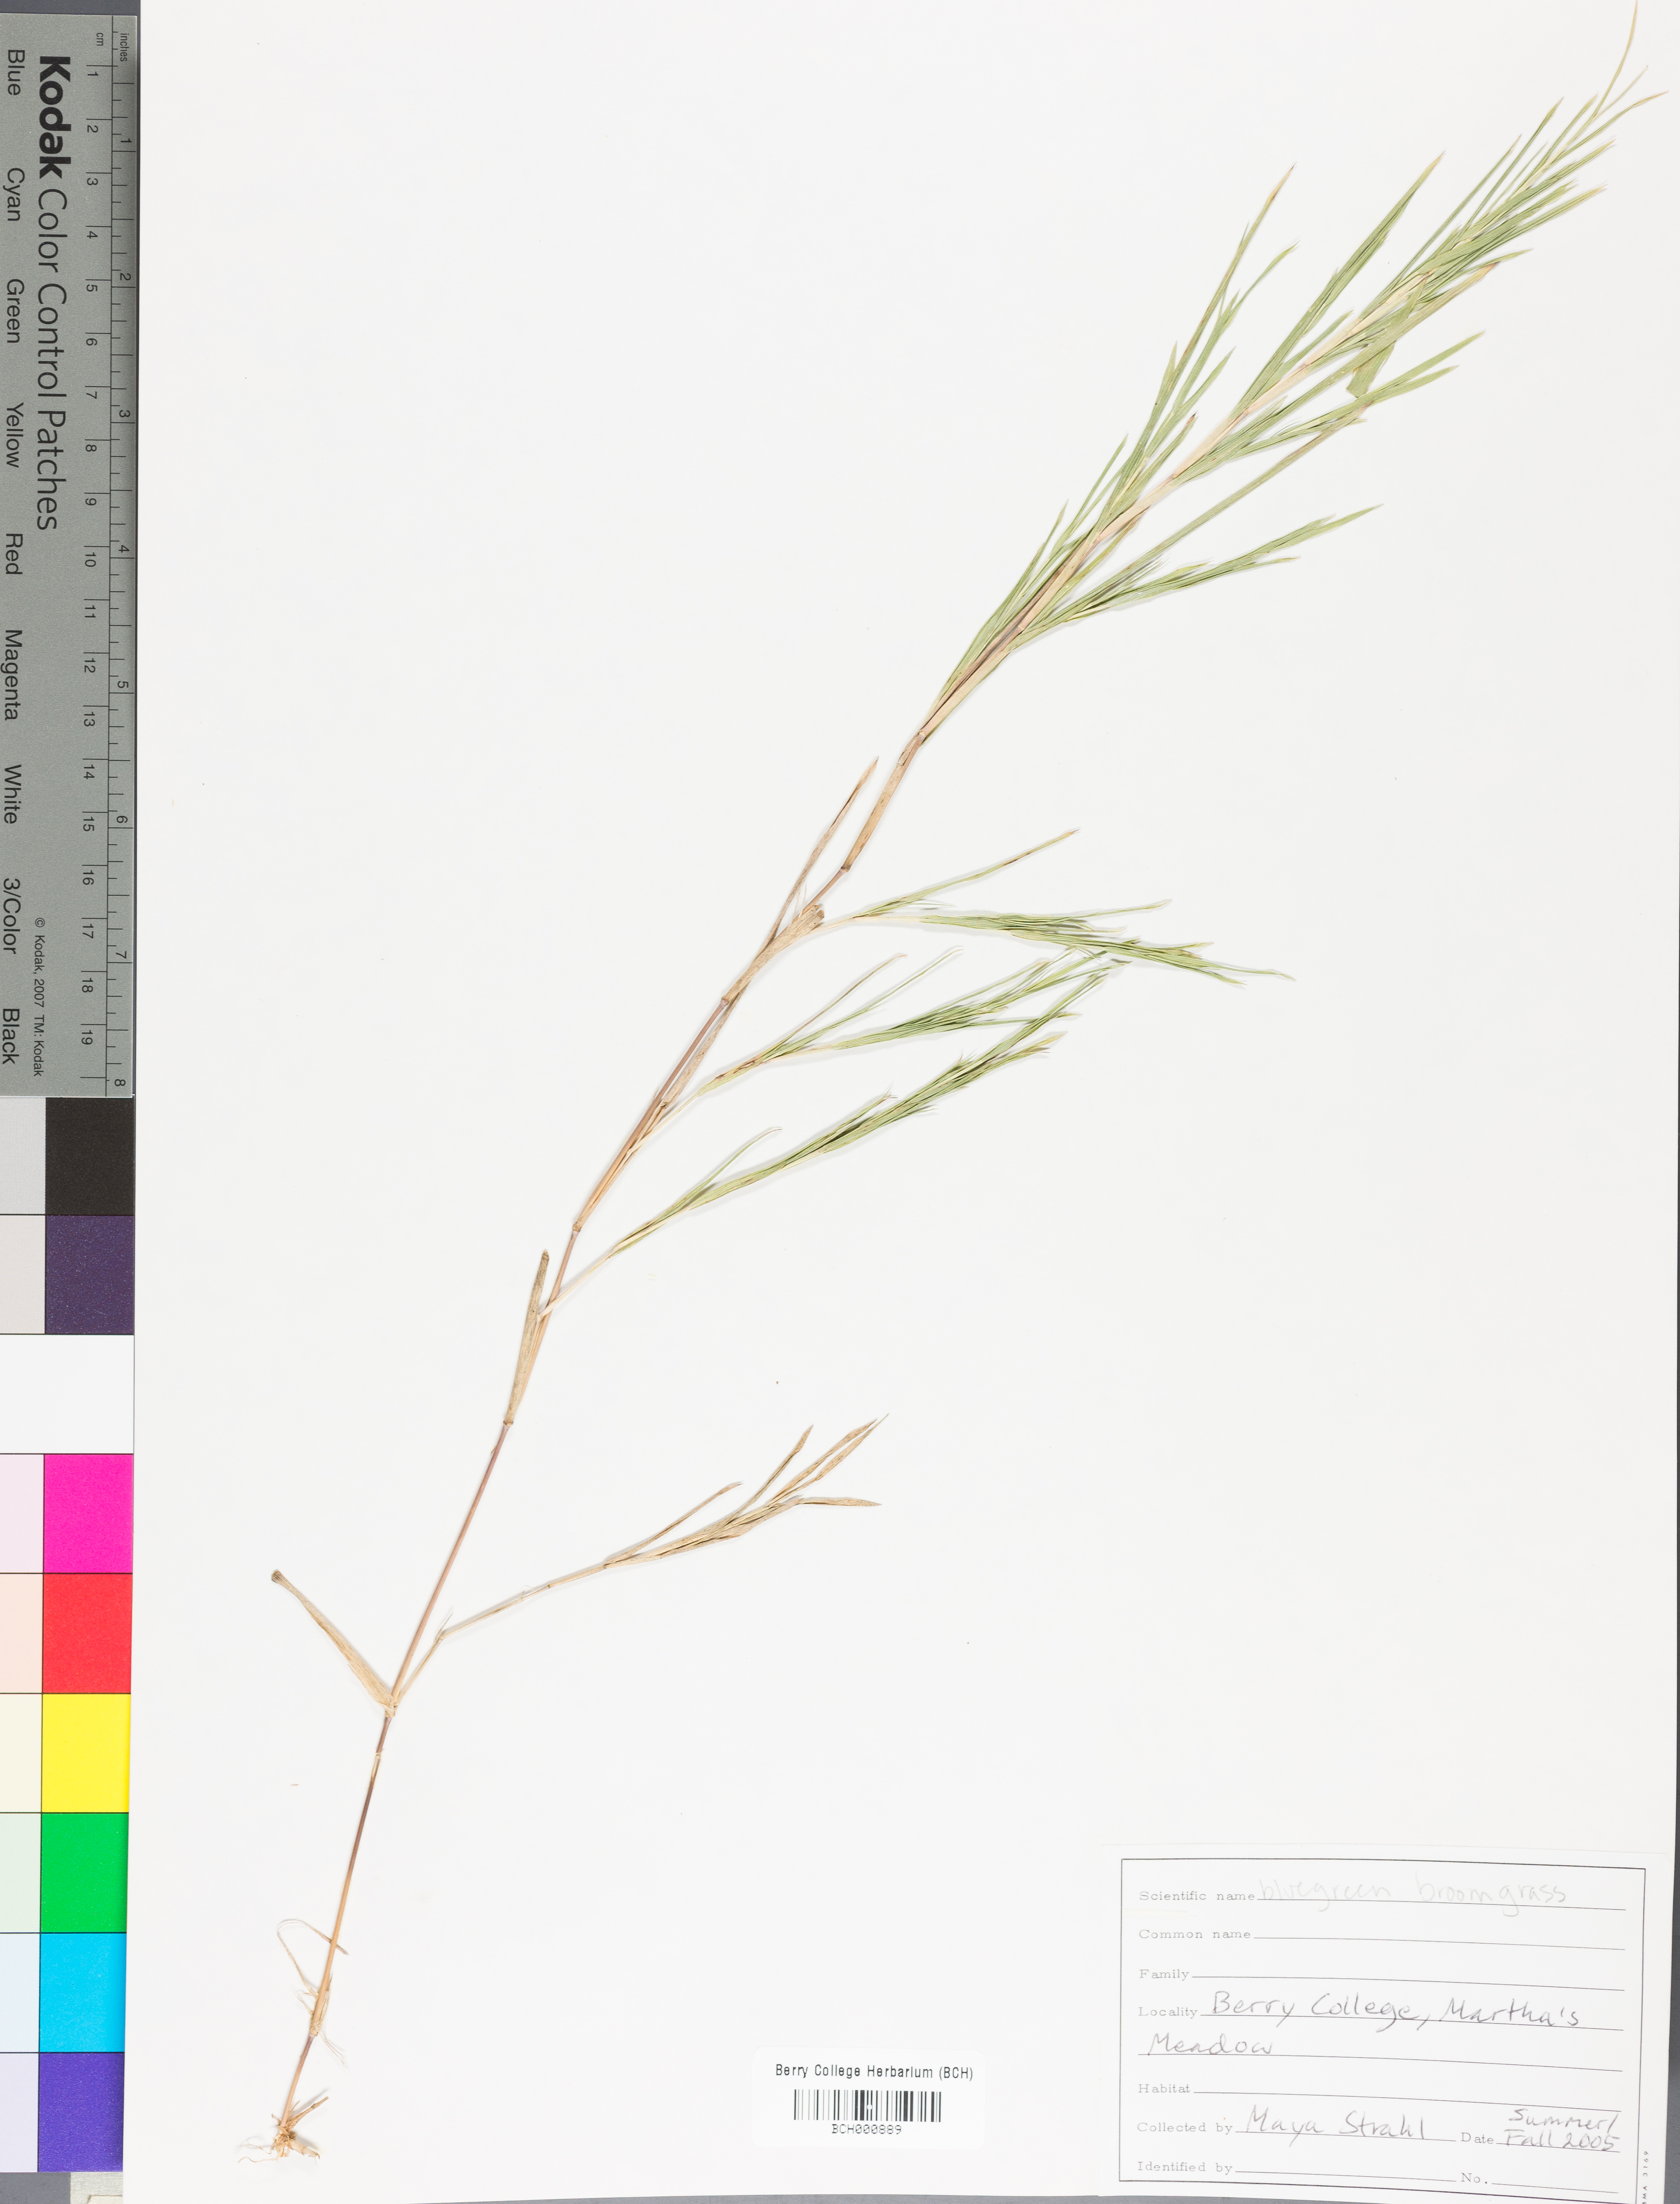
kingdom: Plantae
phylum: Tracheophyta
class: Magnoliopsida
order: Lamiales
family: Acanthaceae
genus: Adhatoda
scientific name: Adhatoda
